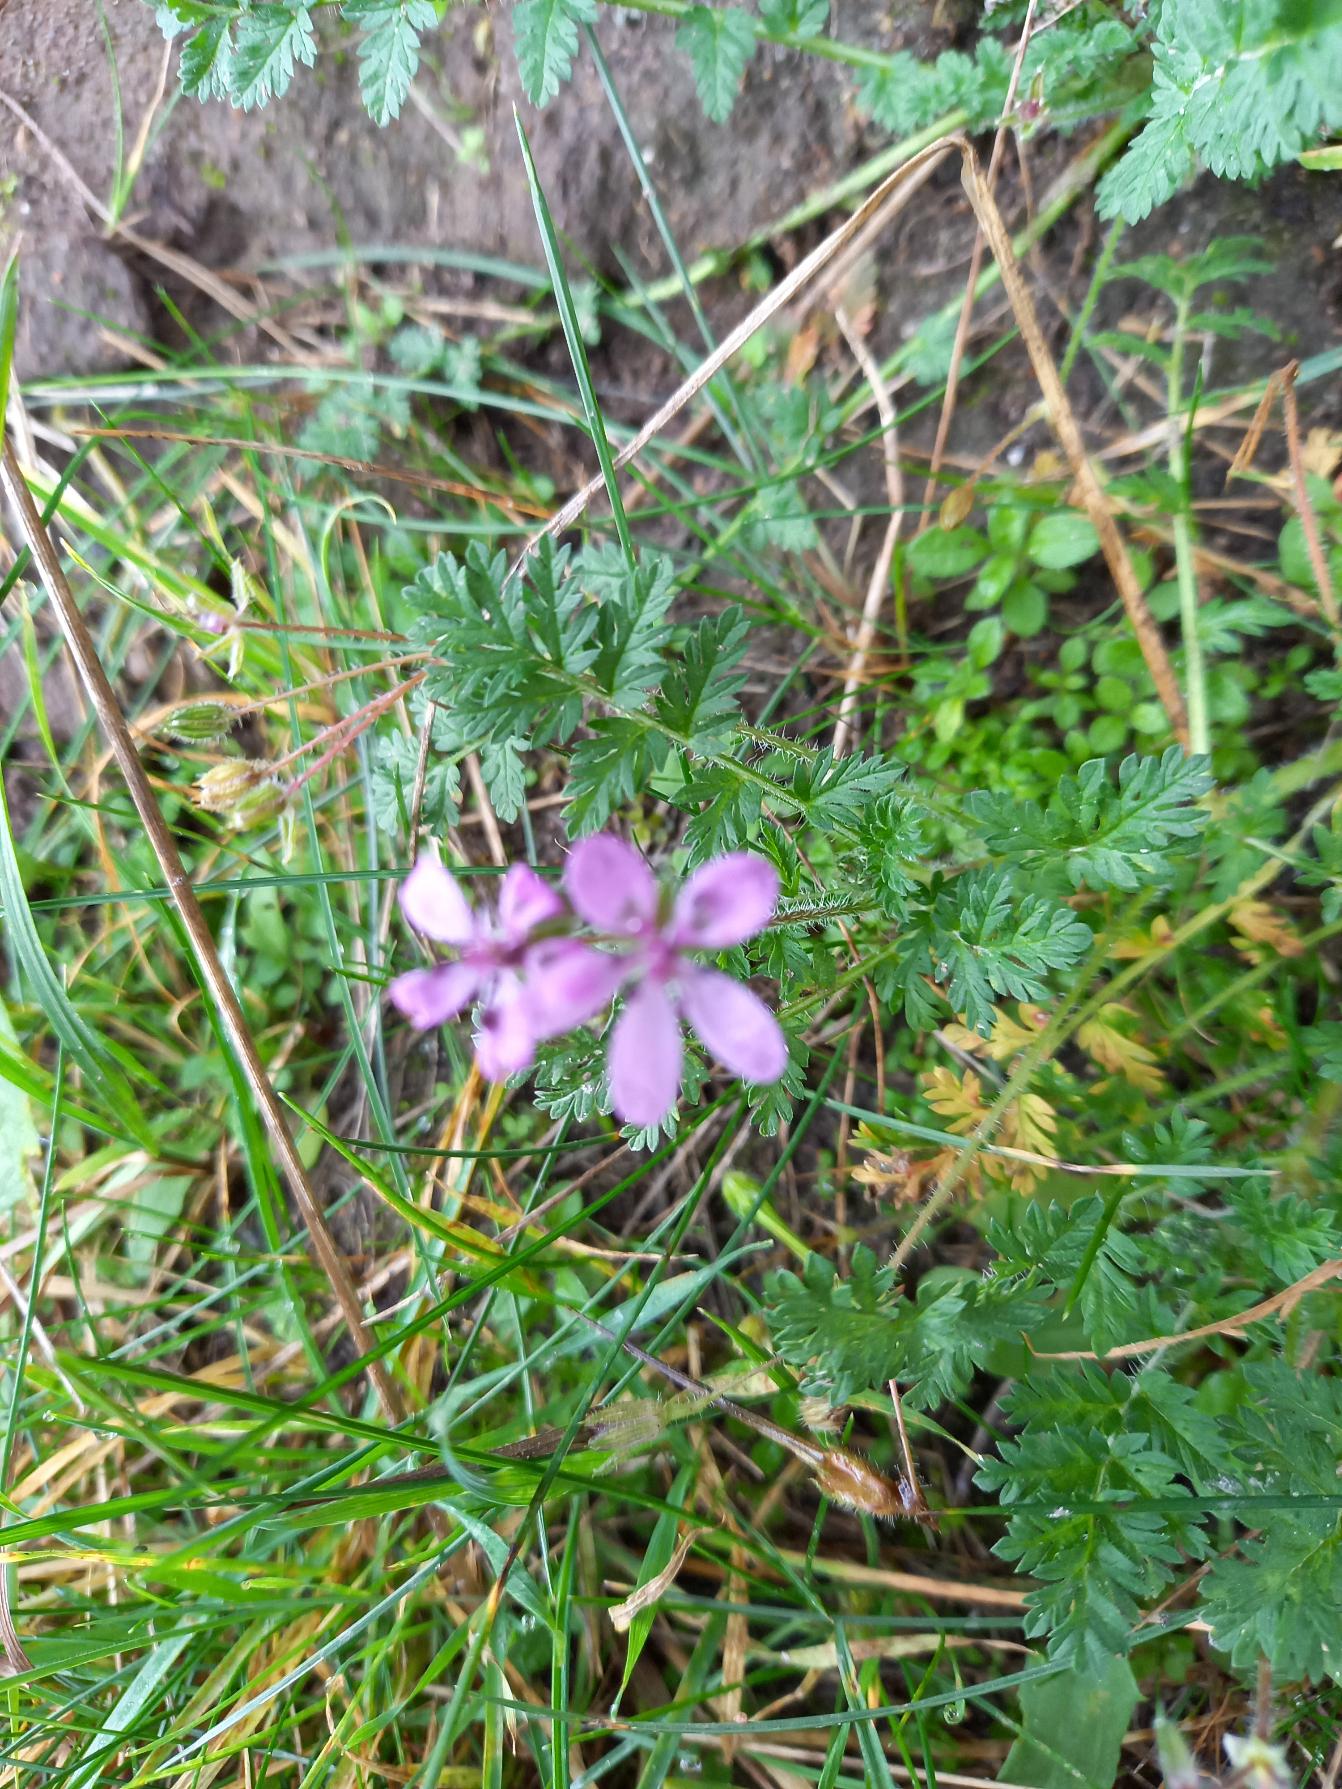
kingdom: Plantae
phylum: Tracheophyta
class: Magnoliopsida
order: Geraniales
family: Geraniaceae
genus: Erodium
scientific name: Erodium cicutarium
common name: Hejrenæb
